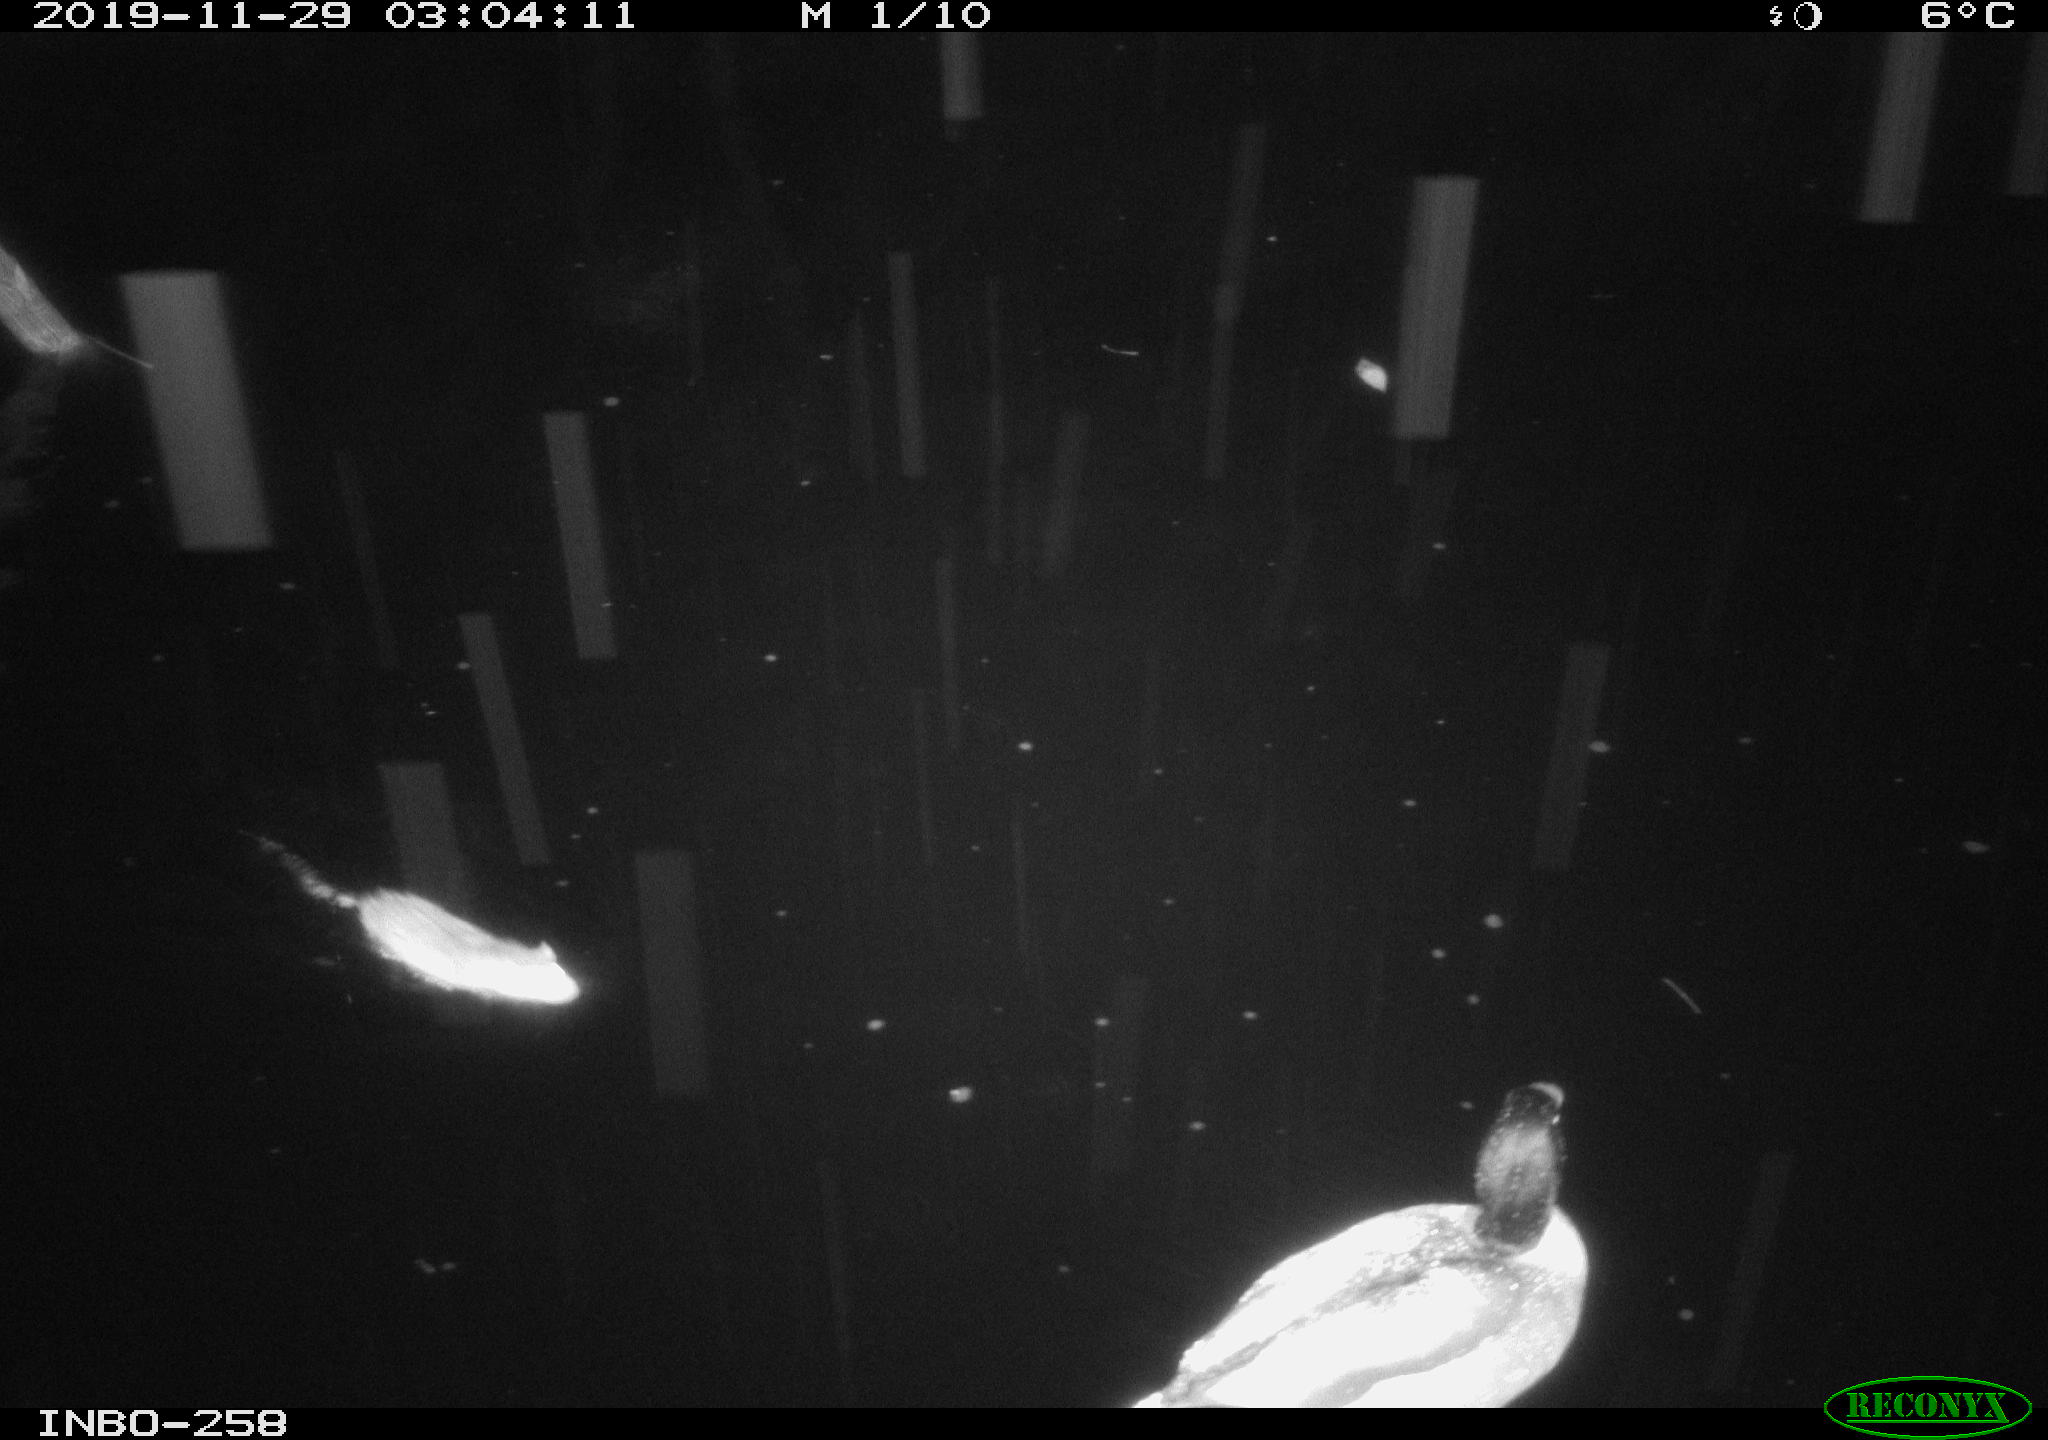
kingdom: Animalia
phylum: Chordata
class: Mammalia
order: Rodentia
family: Muridae
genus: Rattus
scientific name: Rattus norvegicus
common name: Brown rat
